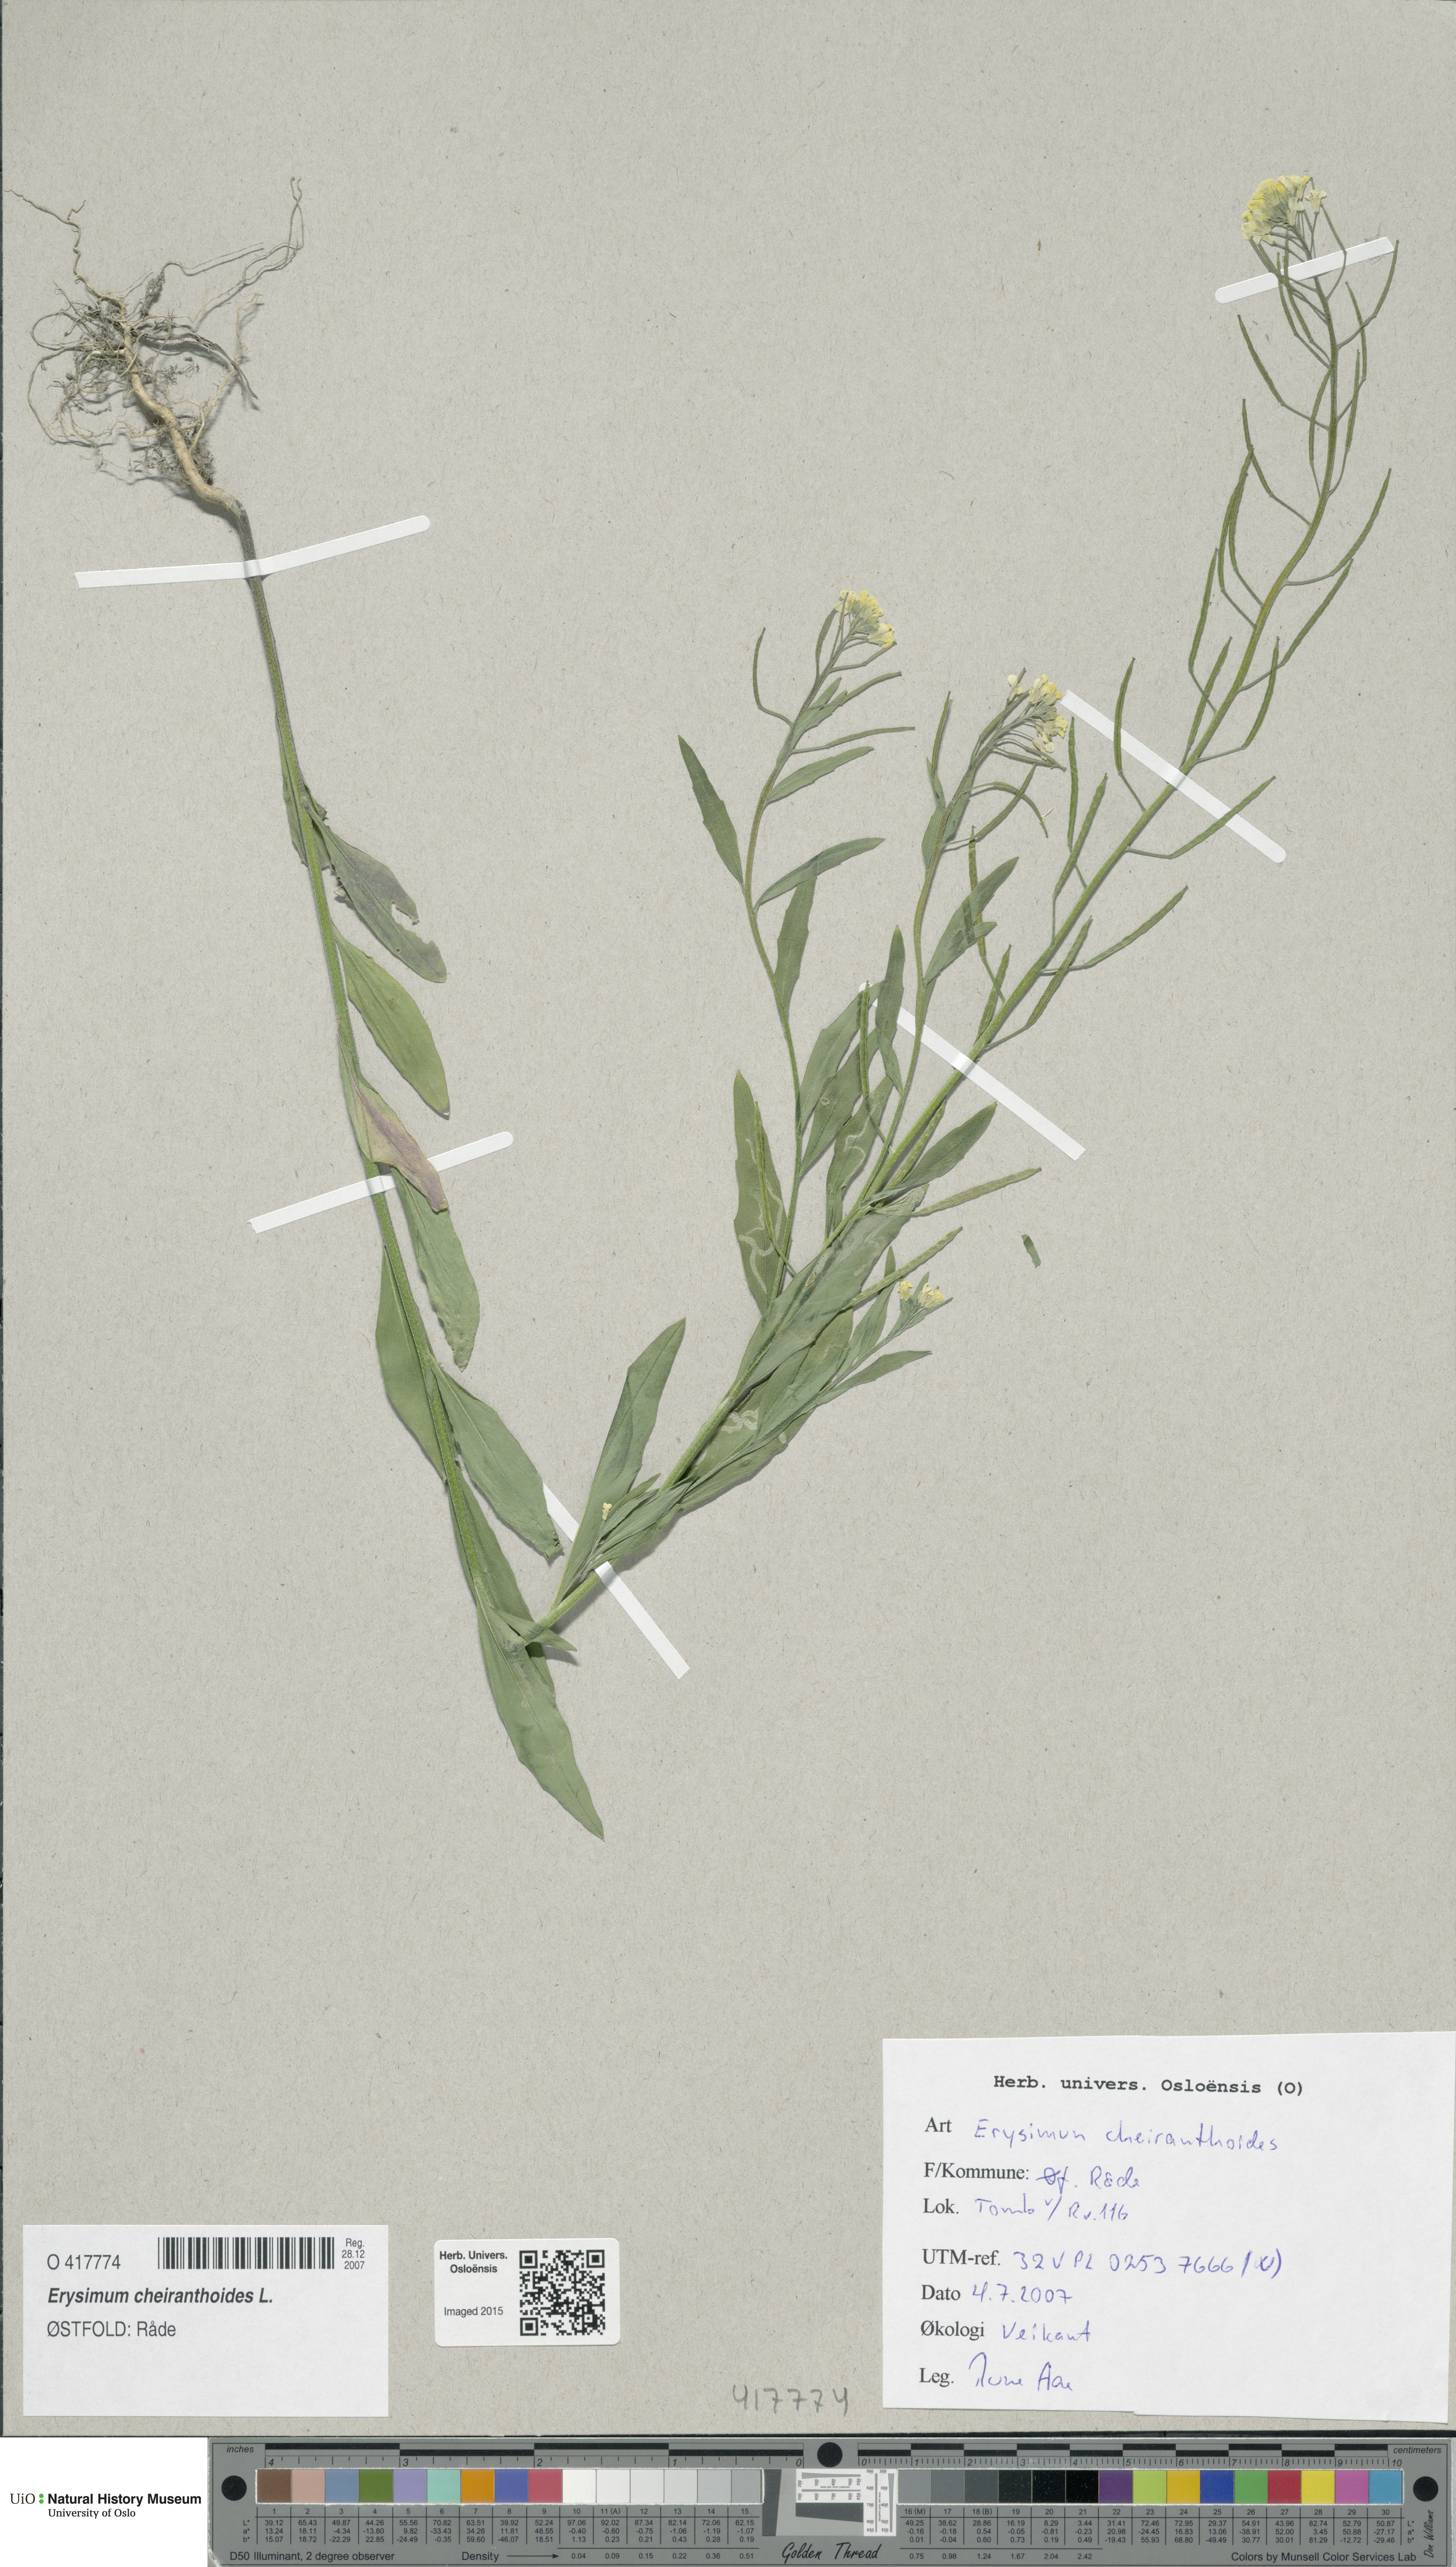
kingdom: Plantae
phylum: Tracheophyta
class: Magnoliopsida
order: Brassicales
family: Brassicaceae
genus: Erysimum
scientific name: Erysimum cheiranthoides
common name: Treacle mustard
